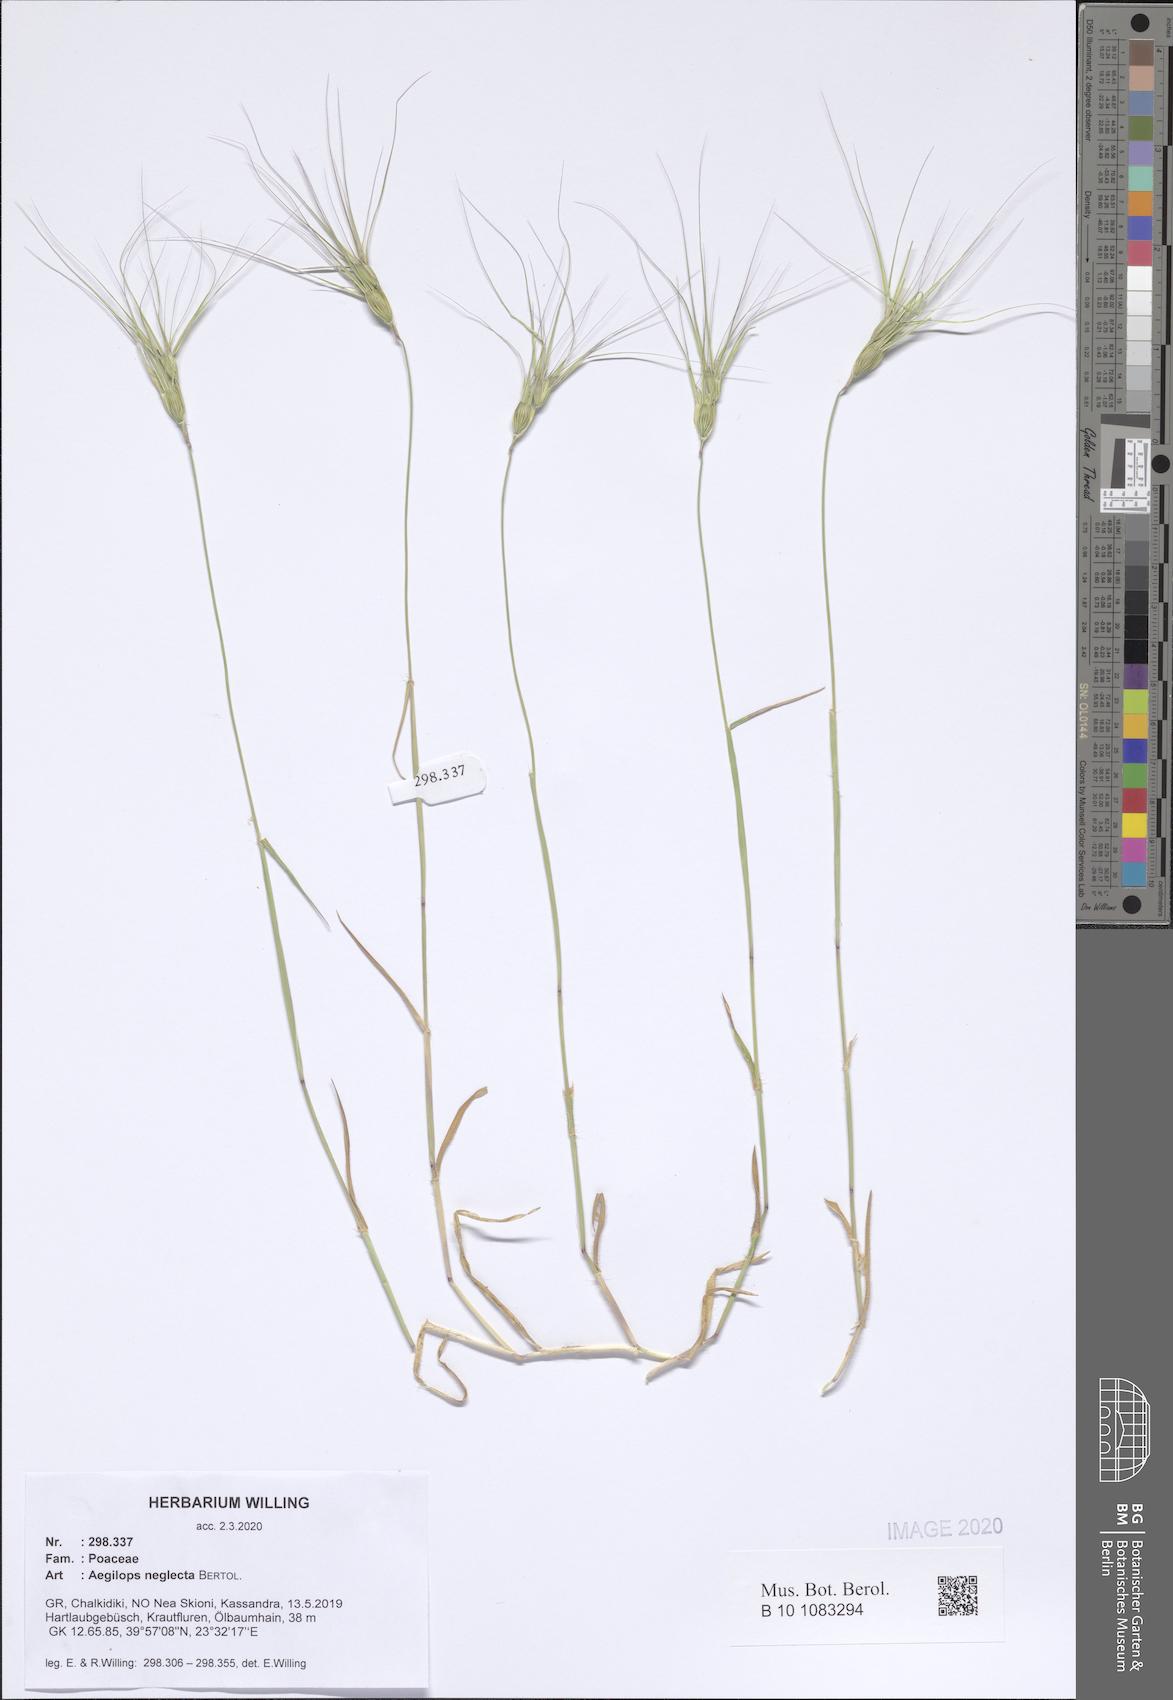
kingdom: Plantae
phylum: Tracheophyta
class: Liliopsida
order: Poales
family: Poaceae
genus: Aegilops
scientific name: Aegilops neglecta
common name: Three-awn goat grass
